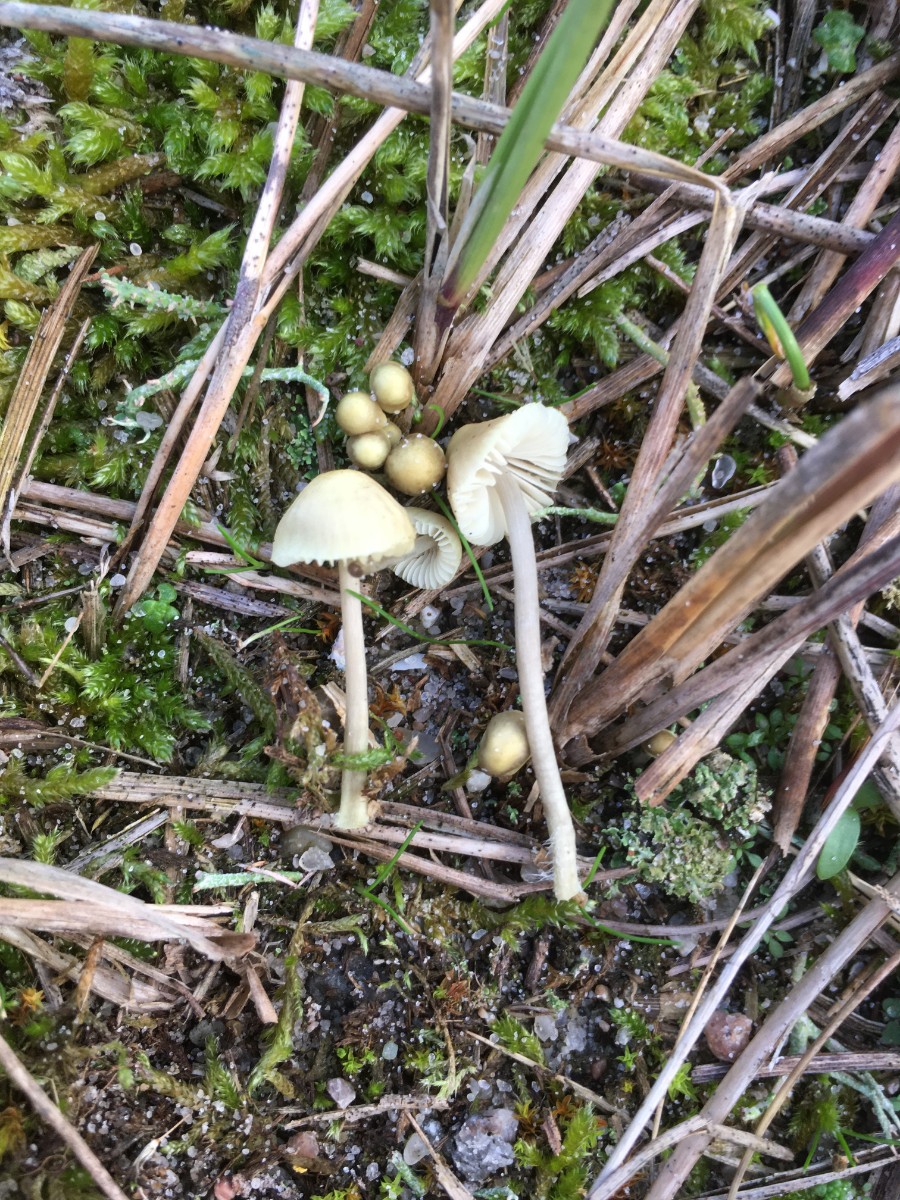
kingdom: Fungi
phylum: Basidiomycota
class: Agaricomycetes
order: Agaricales
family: Mycenaceae
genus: Mycena
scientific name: Mycena chlorantha
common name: klit-huesvamp
